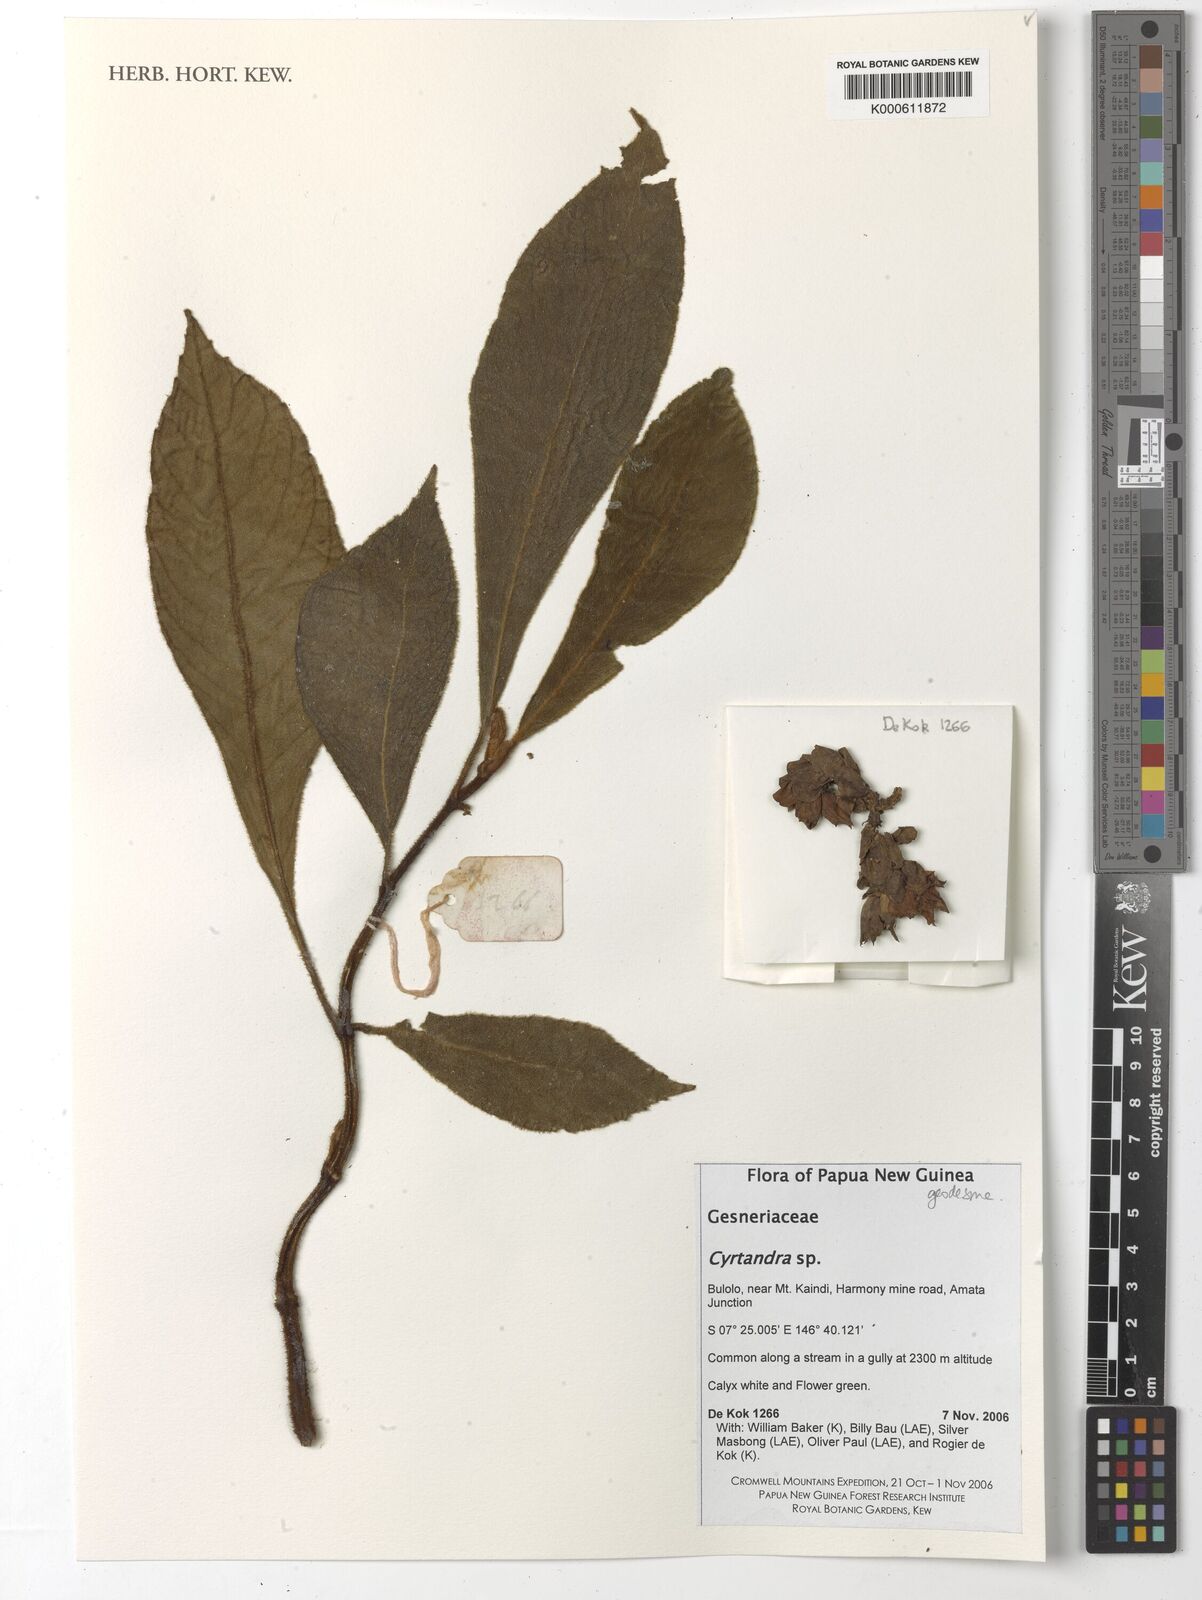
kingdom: Plantae
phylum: Tracheophyta
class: Magnoliopsida
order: Lamiales
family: Gesneriaceae
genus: Cyrtandra
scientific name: Cyrtandra
